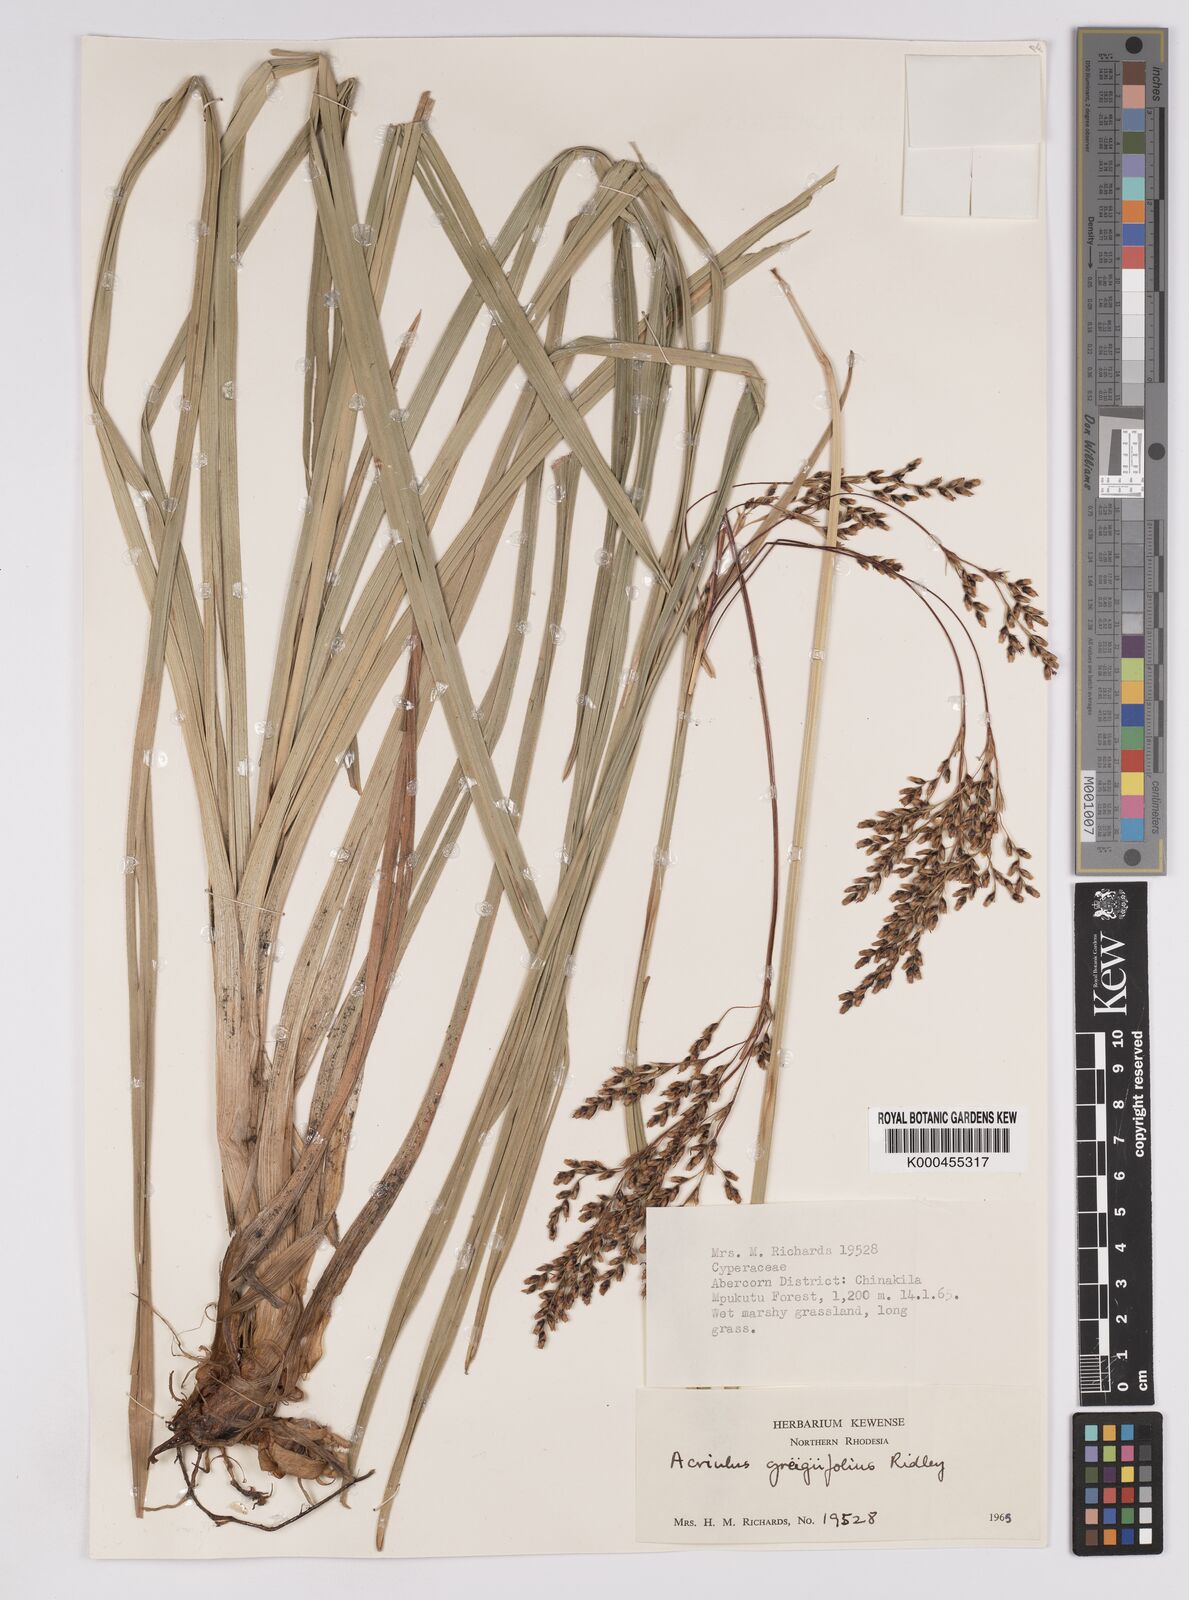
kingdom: Plantae
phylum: Tracheophyta
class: Liliopsida
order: Poales
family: Cyperaceae
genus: Scleria
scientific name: Scleria greigiifolia
